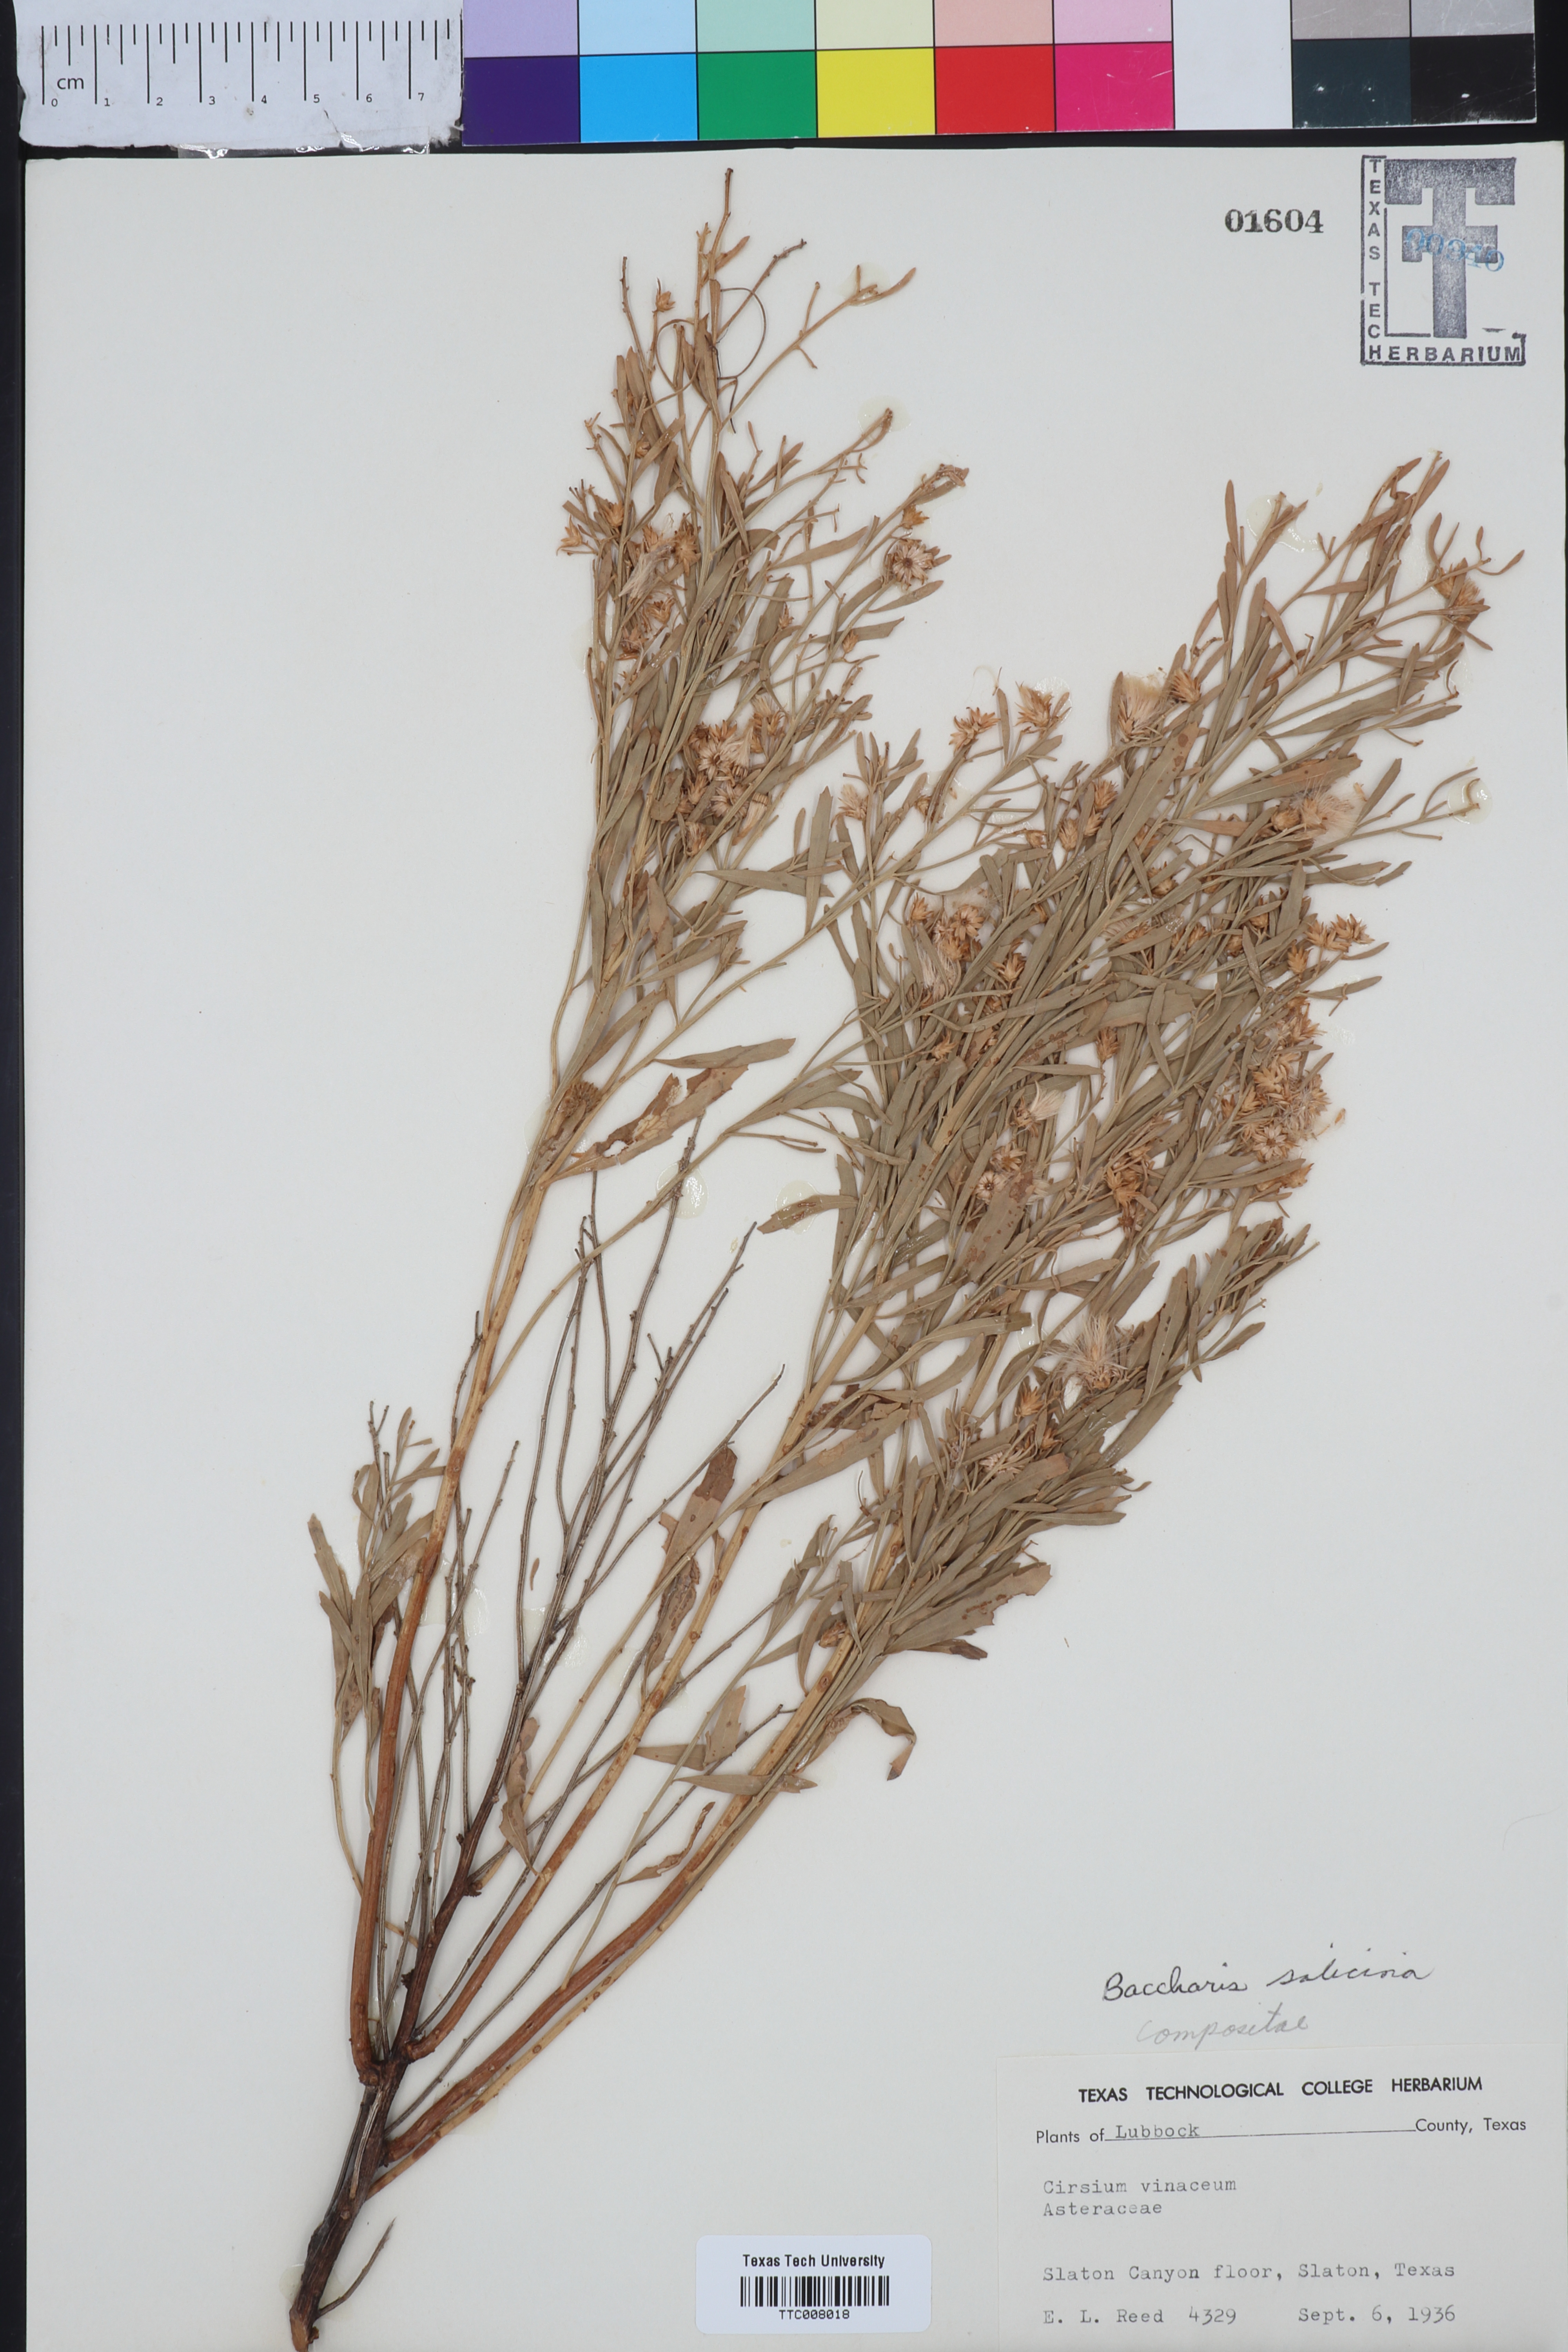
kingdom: Plantae
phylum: Tracheophyta
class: Magnoliopsida
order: Asterales
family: Asteraceae
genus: Baccharis
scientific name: Baccharis salicina
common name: Willow baccharis
